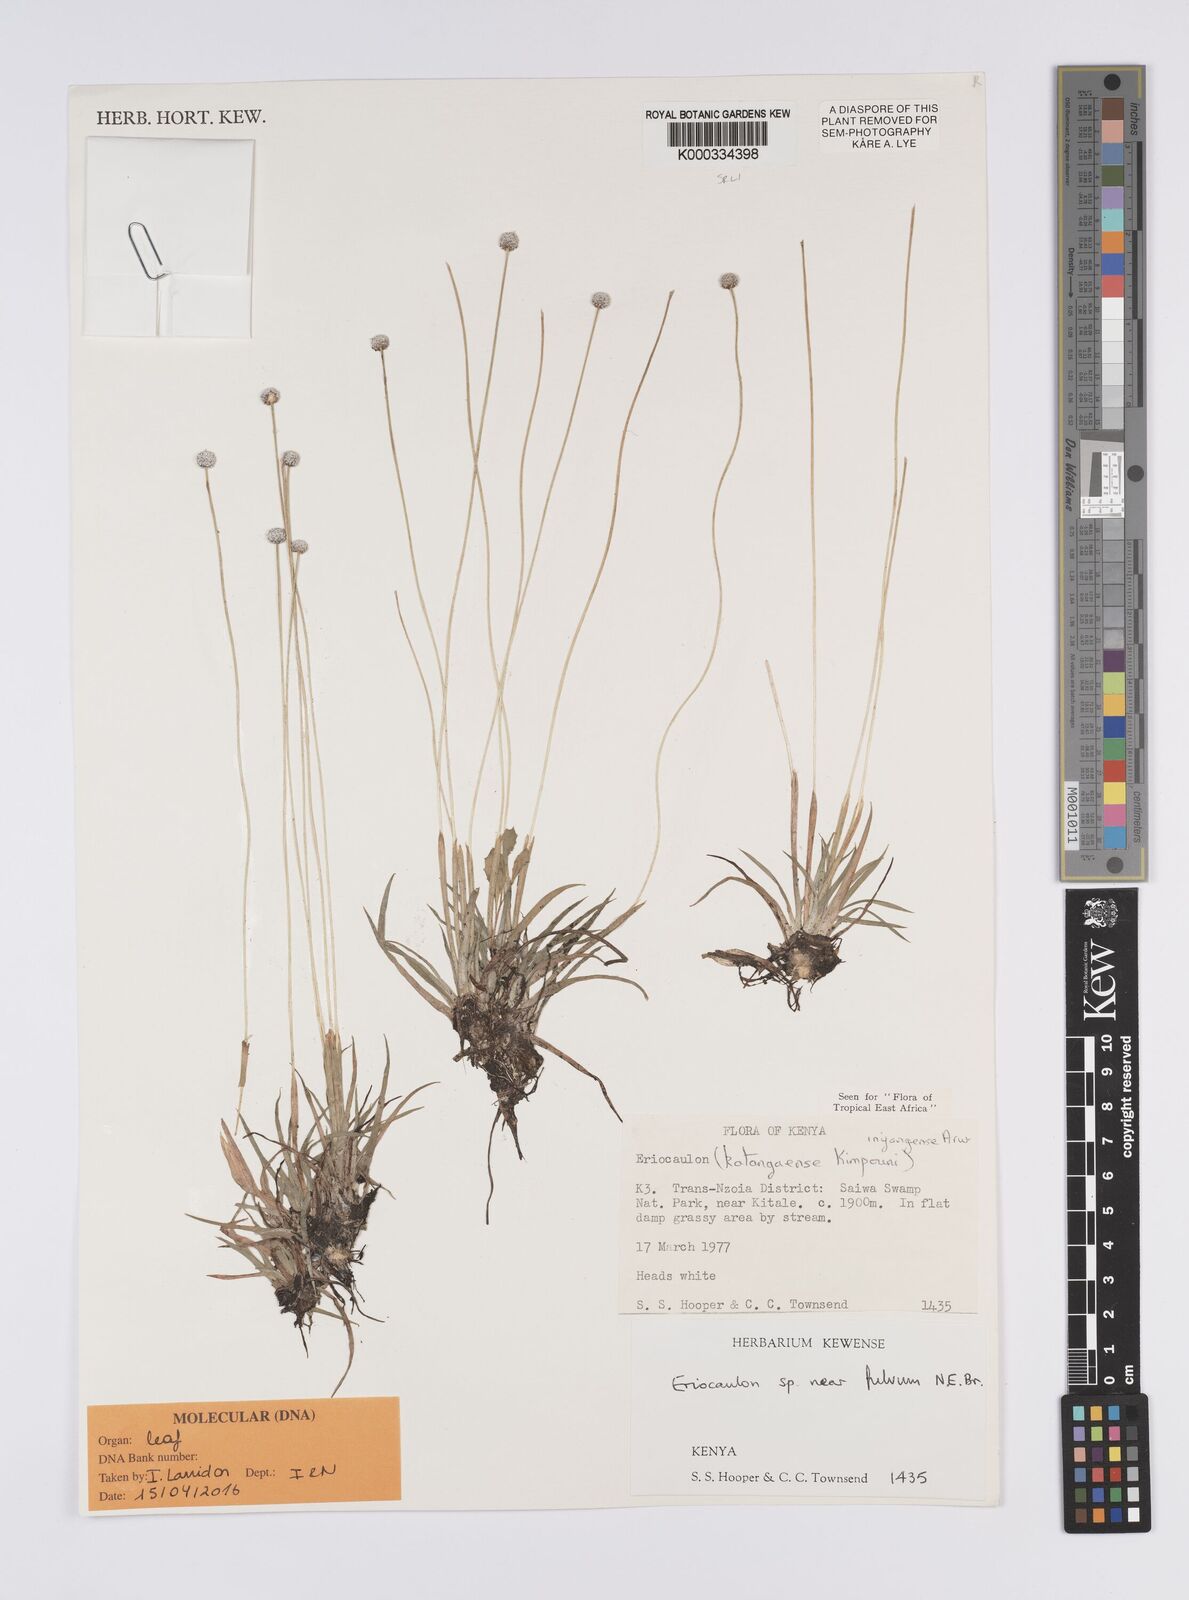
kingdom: Plantae
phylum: Tracheophyta
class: Liliopsida
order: Poales
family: Eriocaulaceae
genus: Eriocaulon
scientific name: Eriocaulon inyangense
